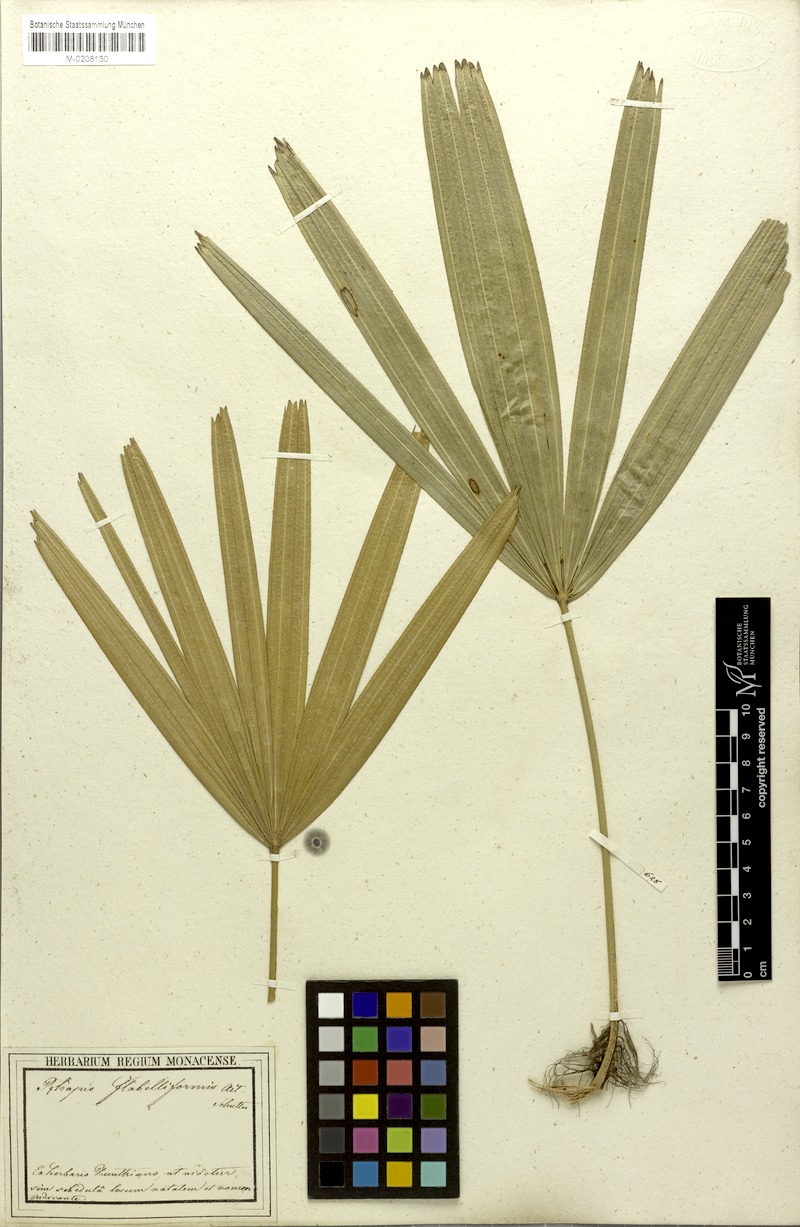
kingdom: Plantae
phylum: Tracheophyta
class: Liliopsida
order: Arecales
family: Arecaceae
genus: Rhapis
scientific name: Rhapis excelsa
